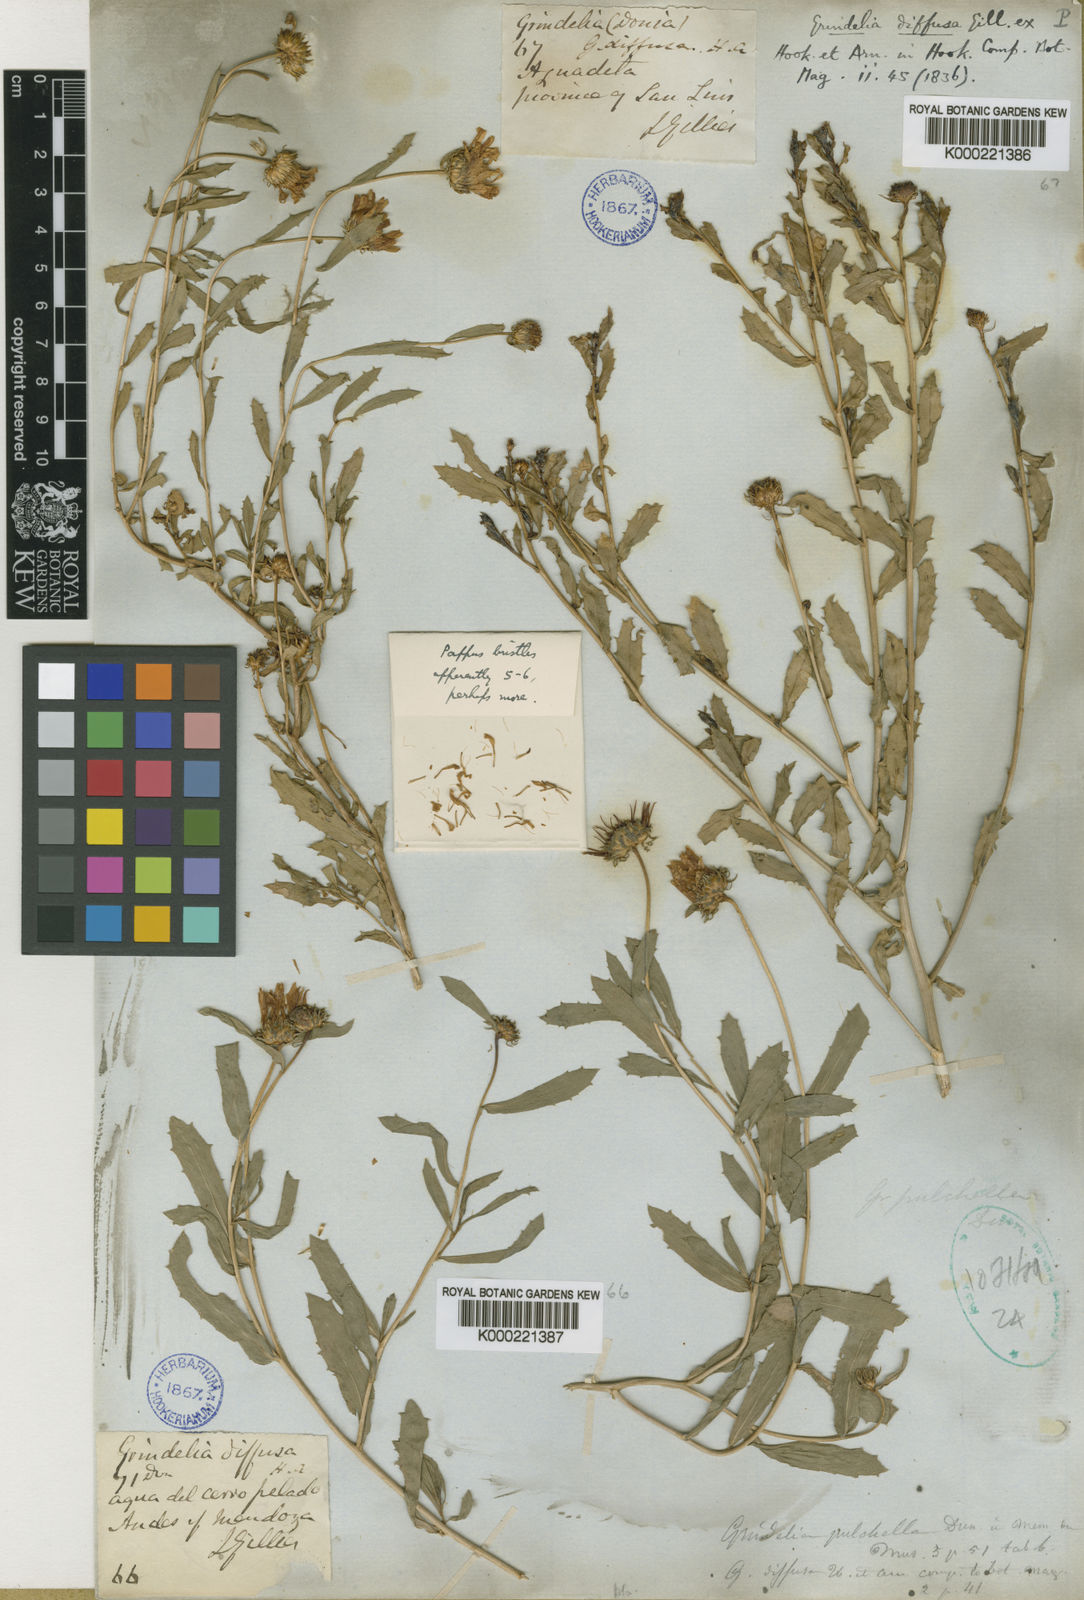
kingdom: Plantae
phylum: Tracheophyta
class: Magnoliopsida
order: Asterales
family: Asteraceae
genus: Grindelia
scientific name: Grindelia pulchella
